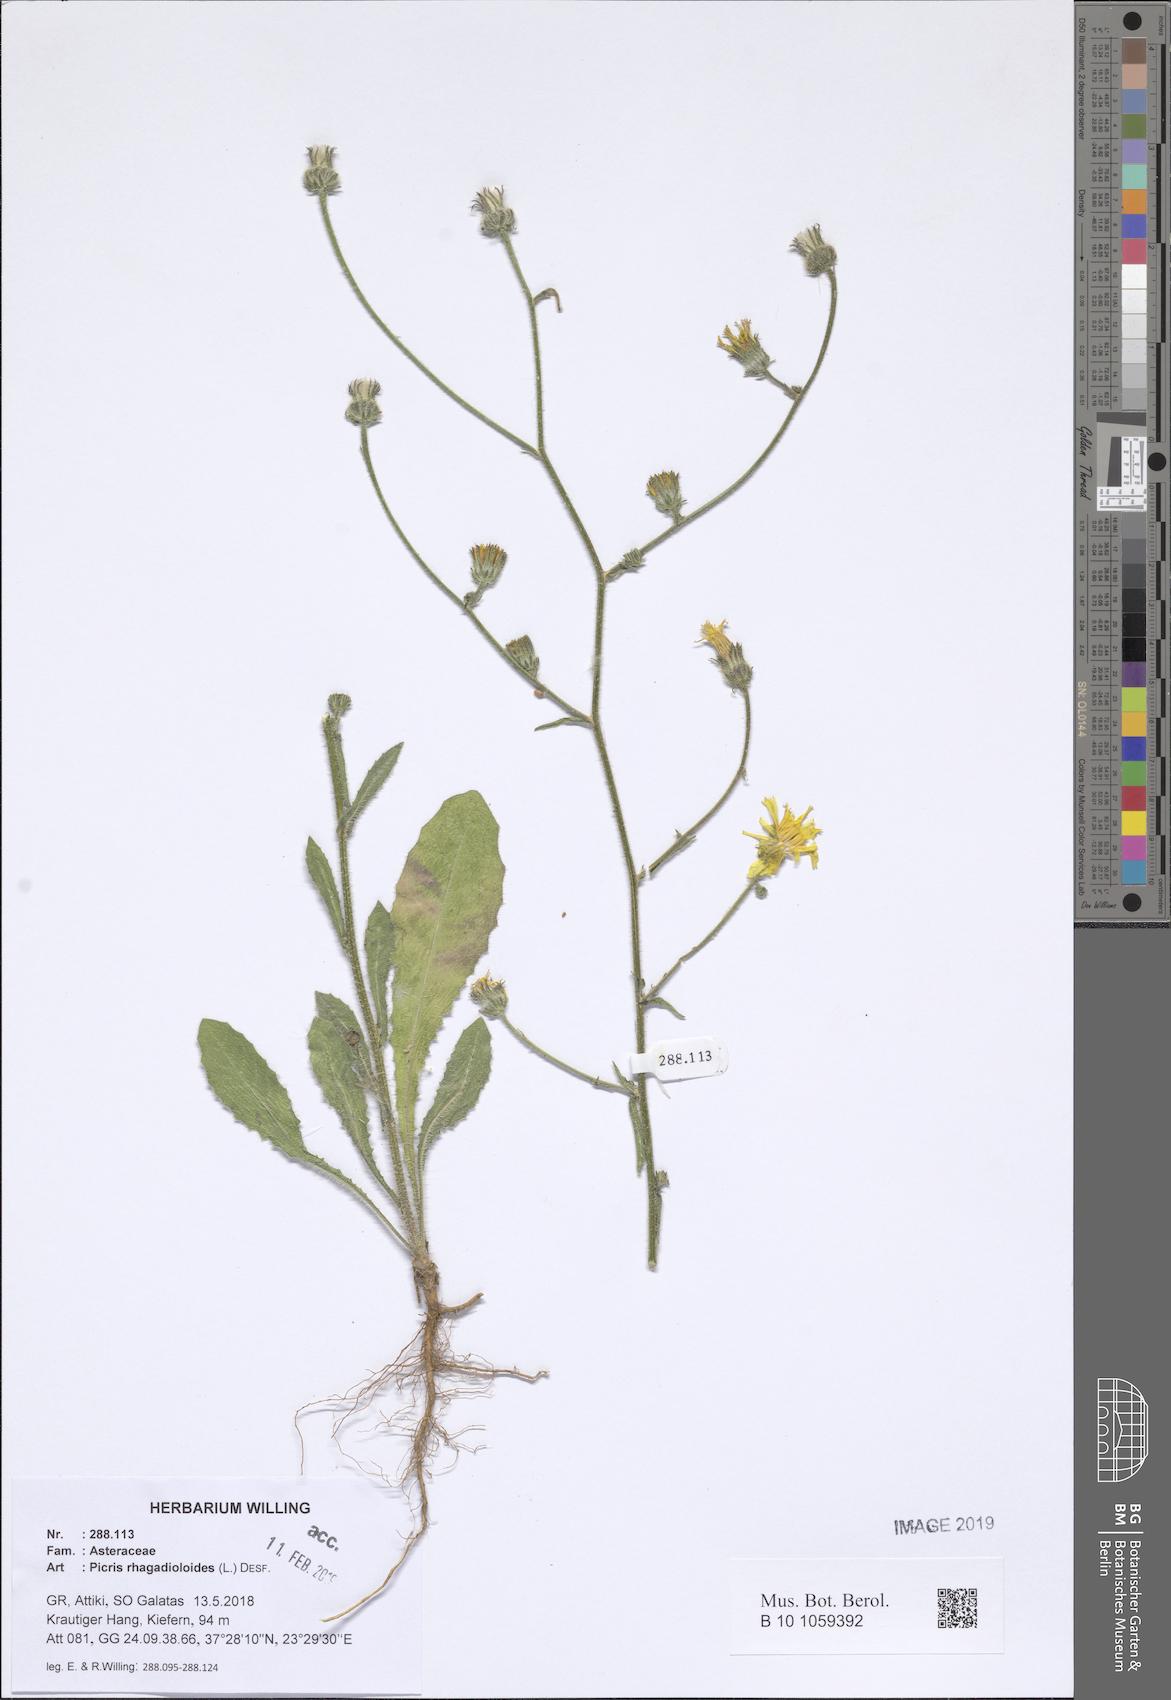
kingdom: Plantae
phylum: Tracheophyta
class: Magnoliopsida
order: Asterales
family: Asteraceae
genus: Picris
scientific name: Picris rhagadioloides
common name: Oxtongue
